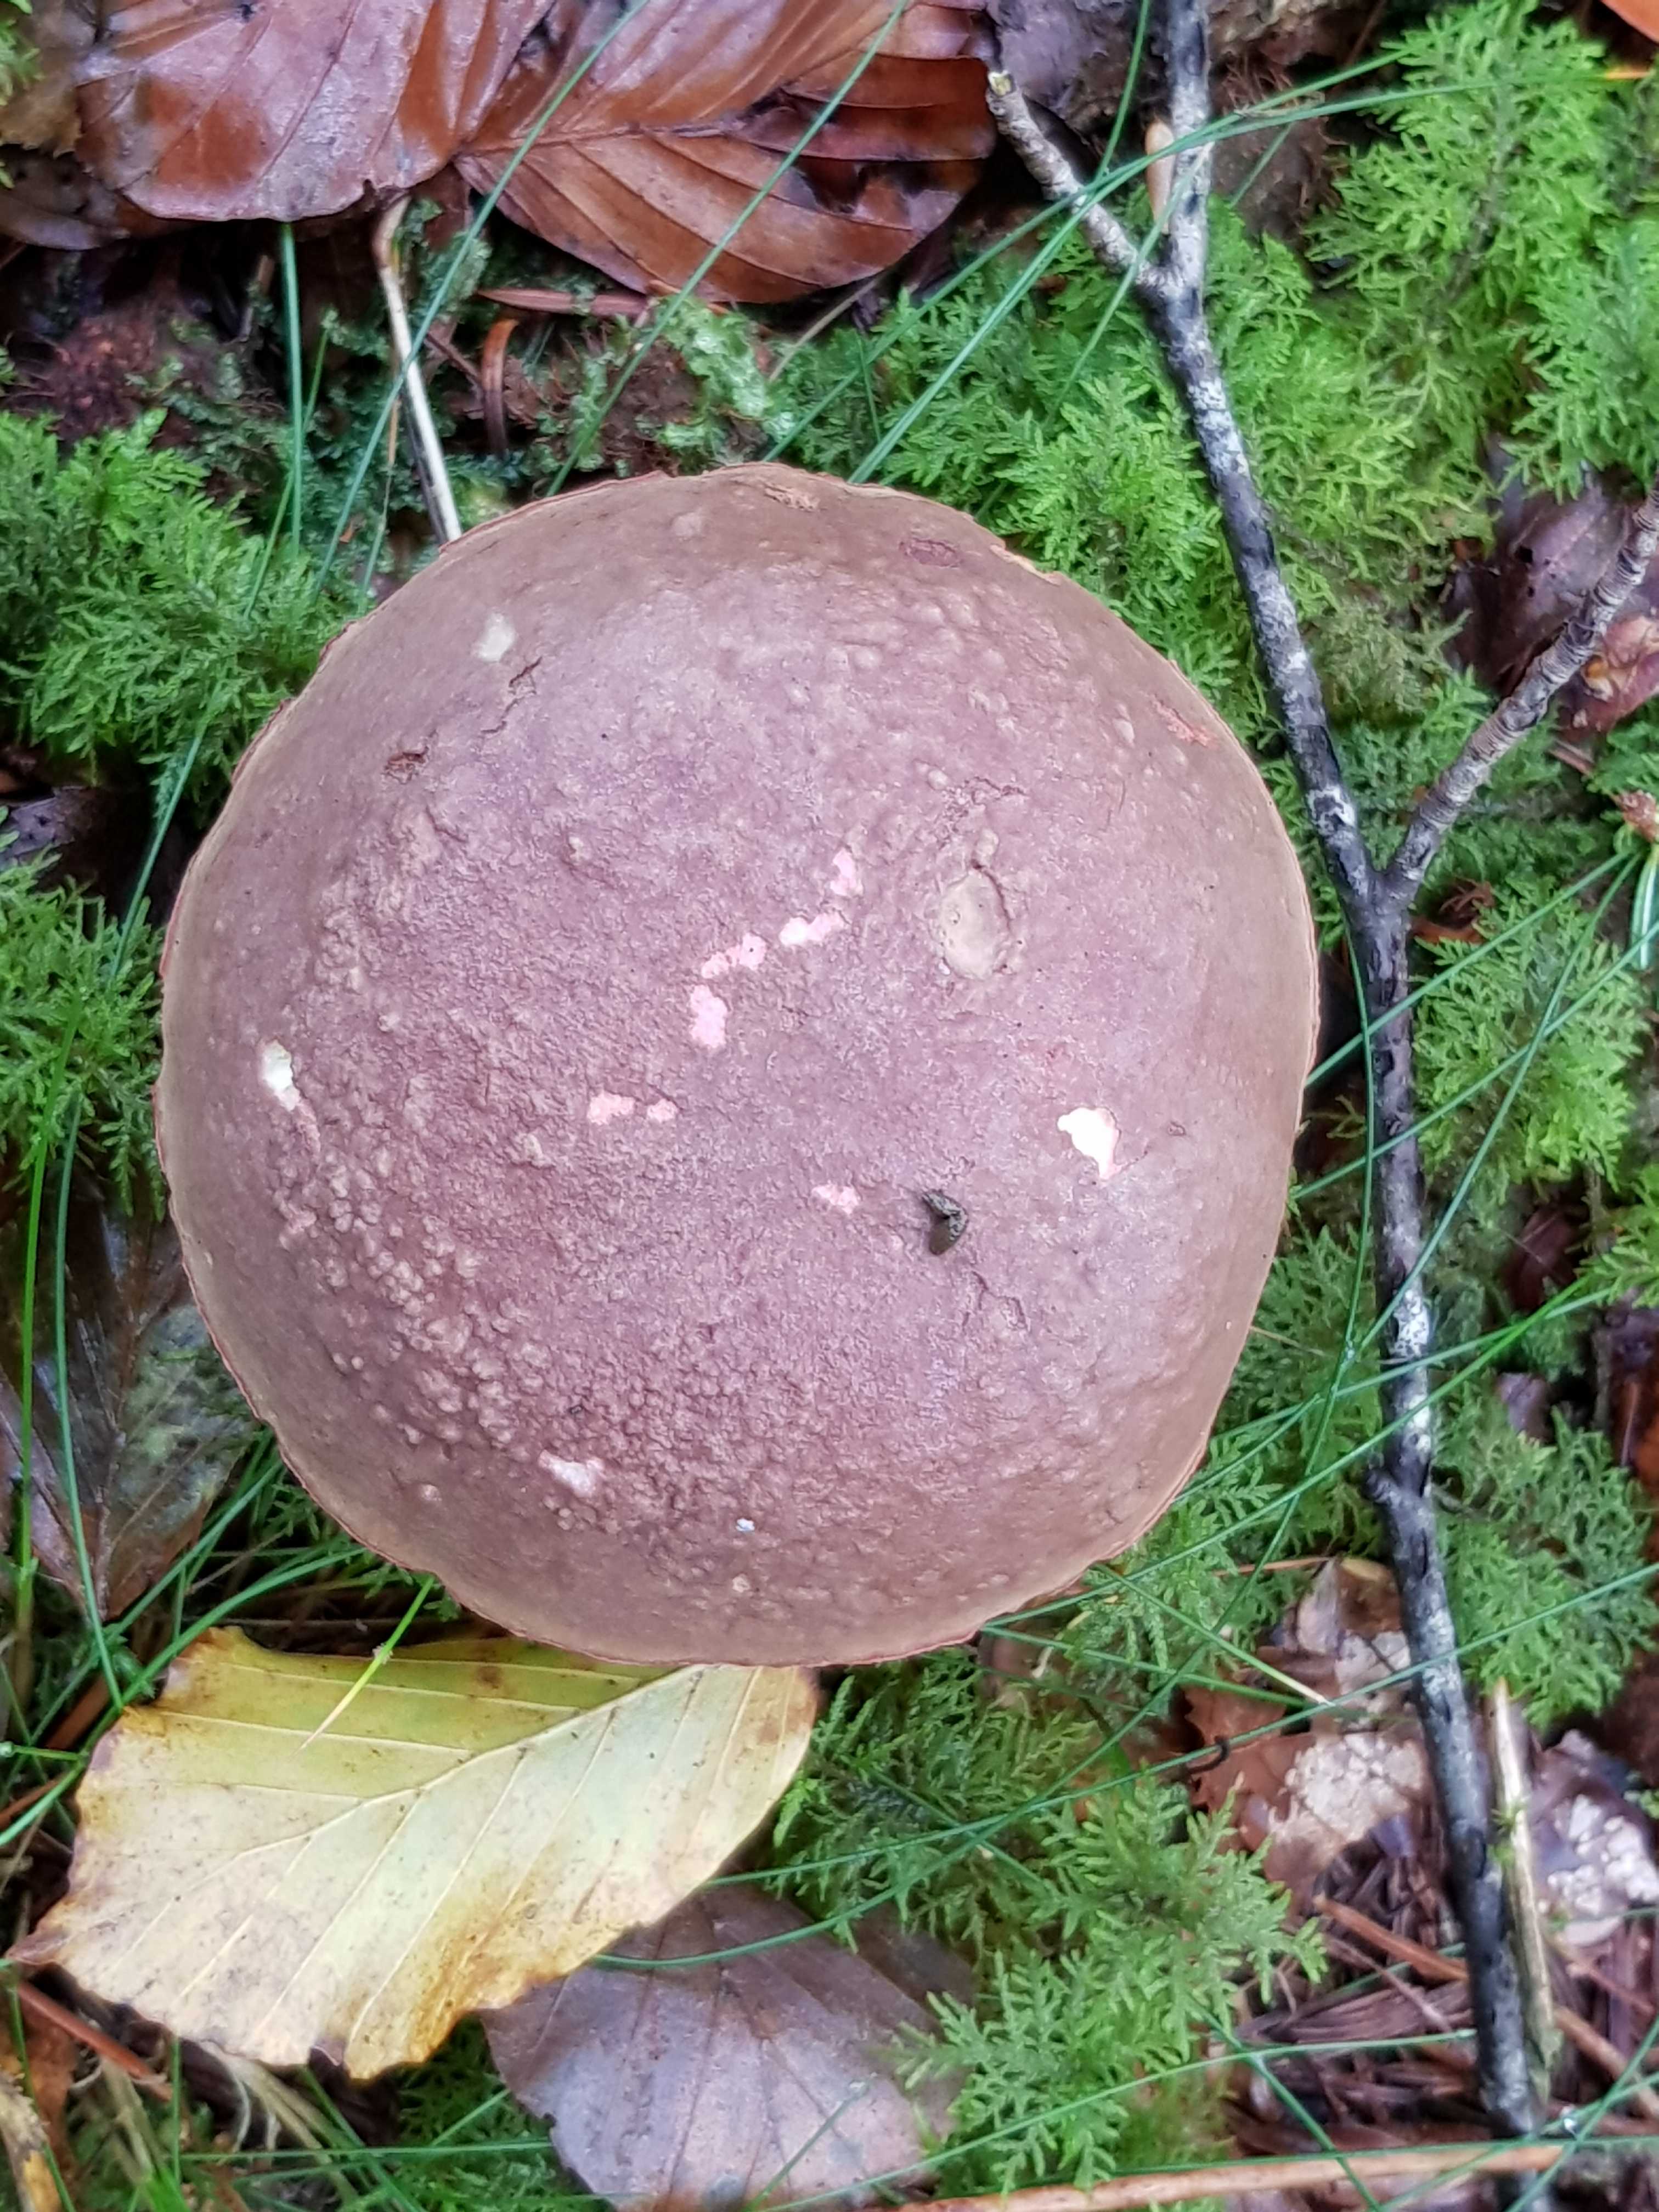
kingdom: Fungi
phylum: Basidiomycota
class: Agaricomycetes
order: Boletales
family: Boletaceae
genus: Xerocomellus
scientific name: Xerocomellus
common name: dværgrørhat
